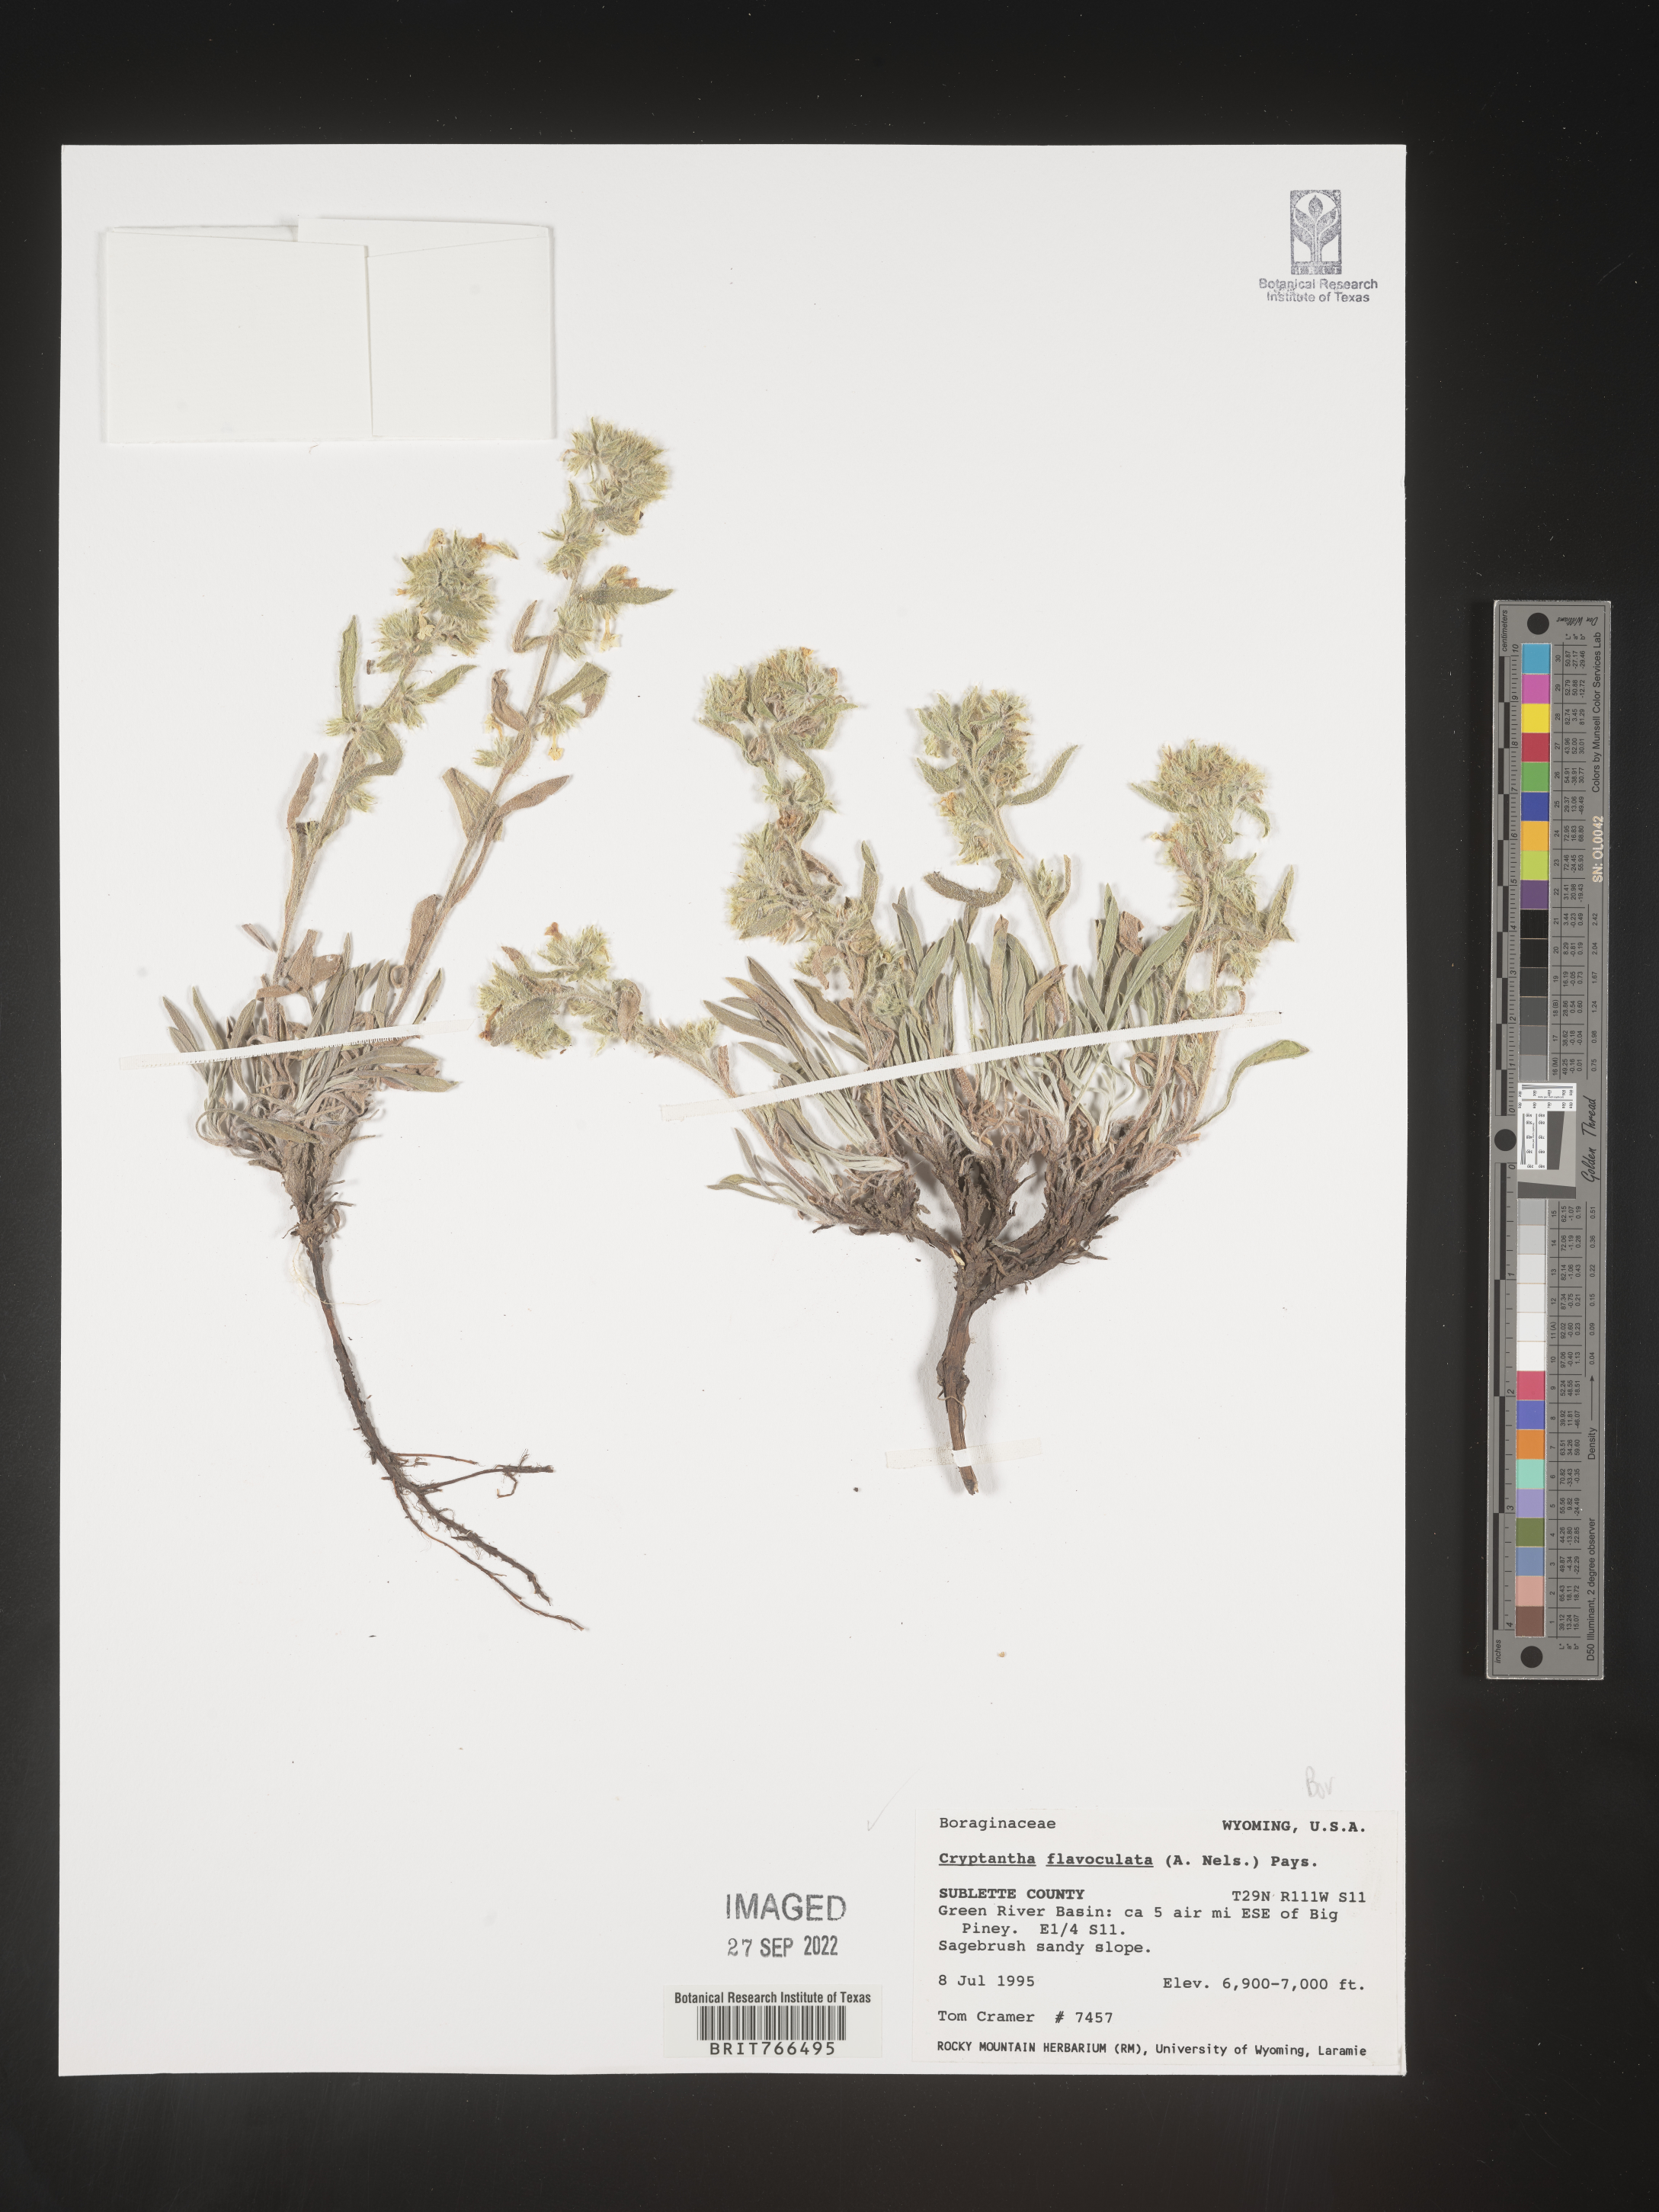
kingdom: Plantae
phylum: Tracheophyta
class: Magnoliopsida
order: Boraginales
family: Boraginaceae
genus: Oreocarya
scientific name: Oreocarya flavoculata
